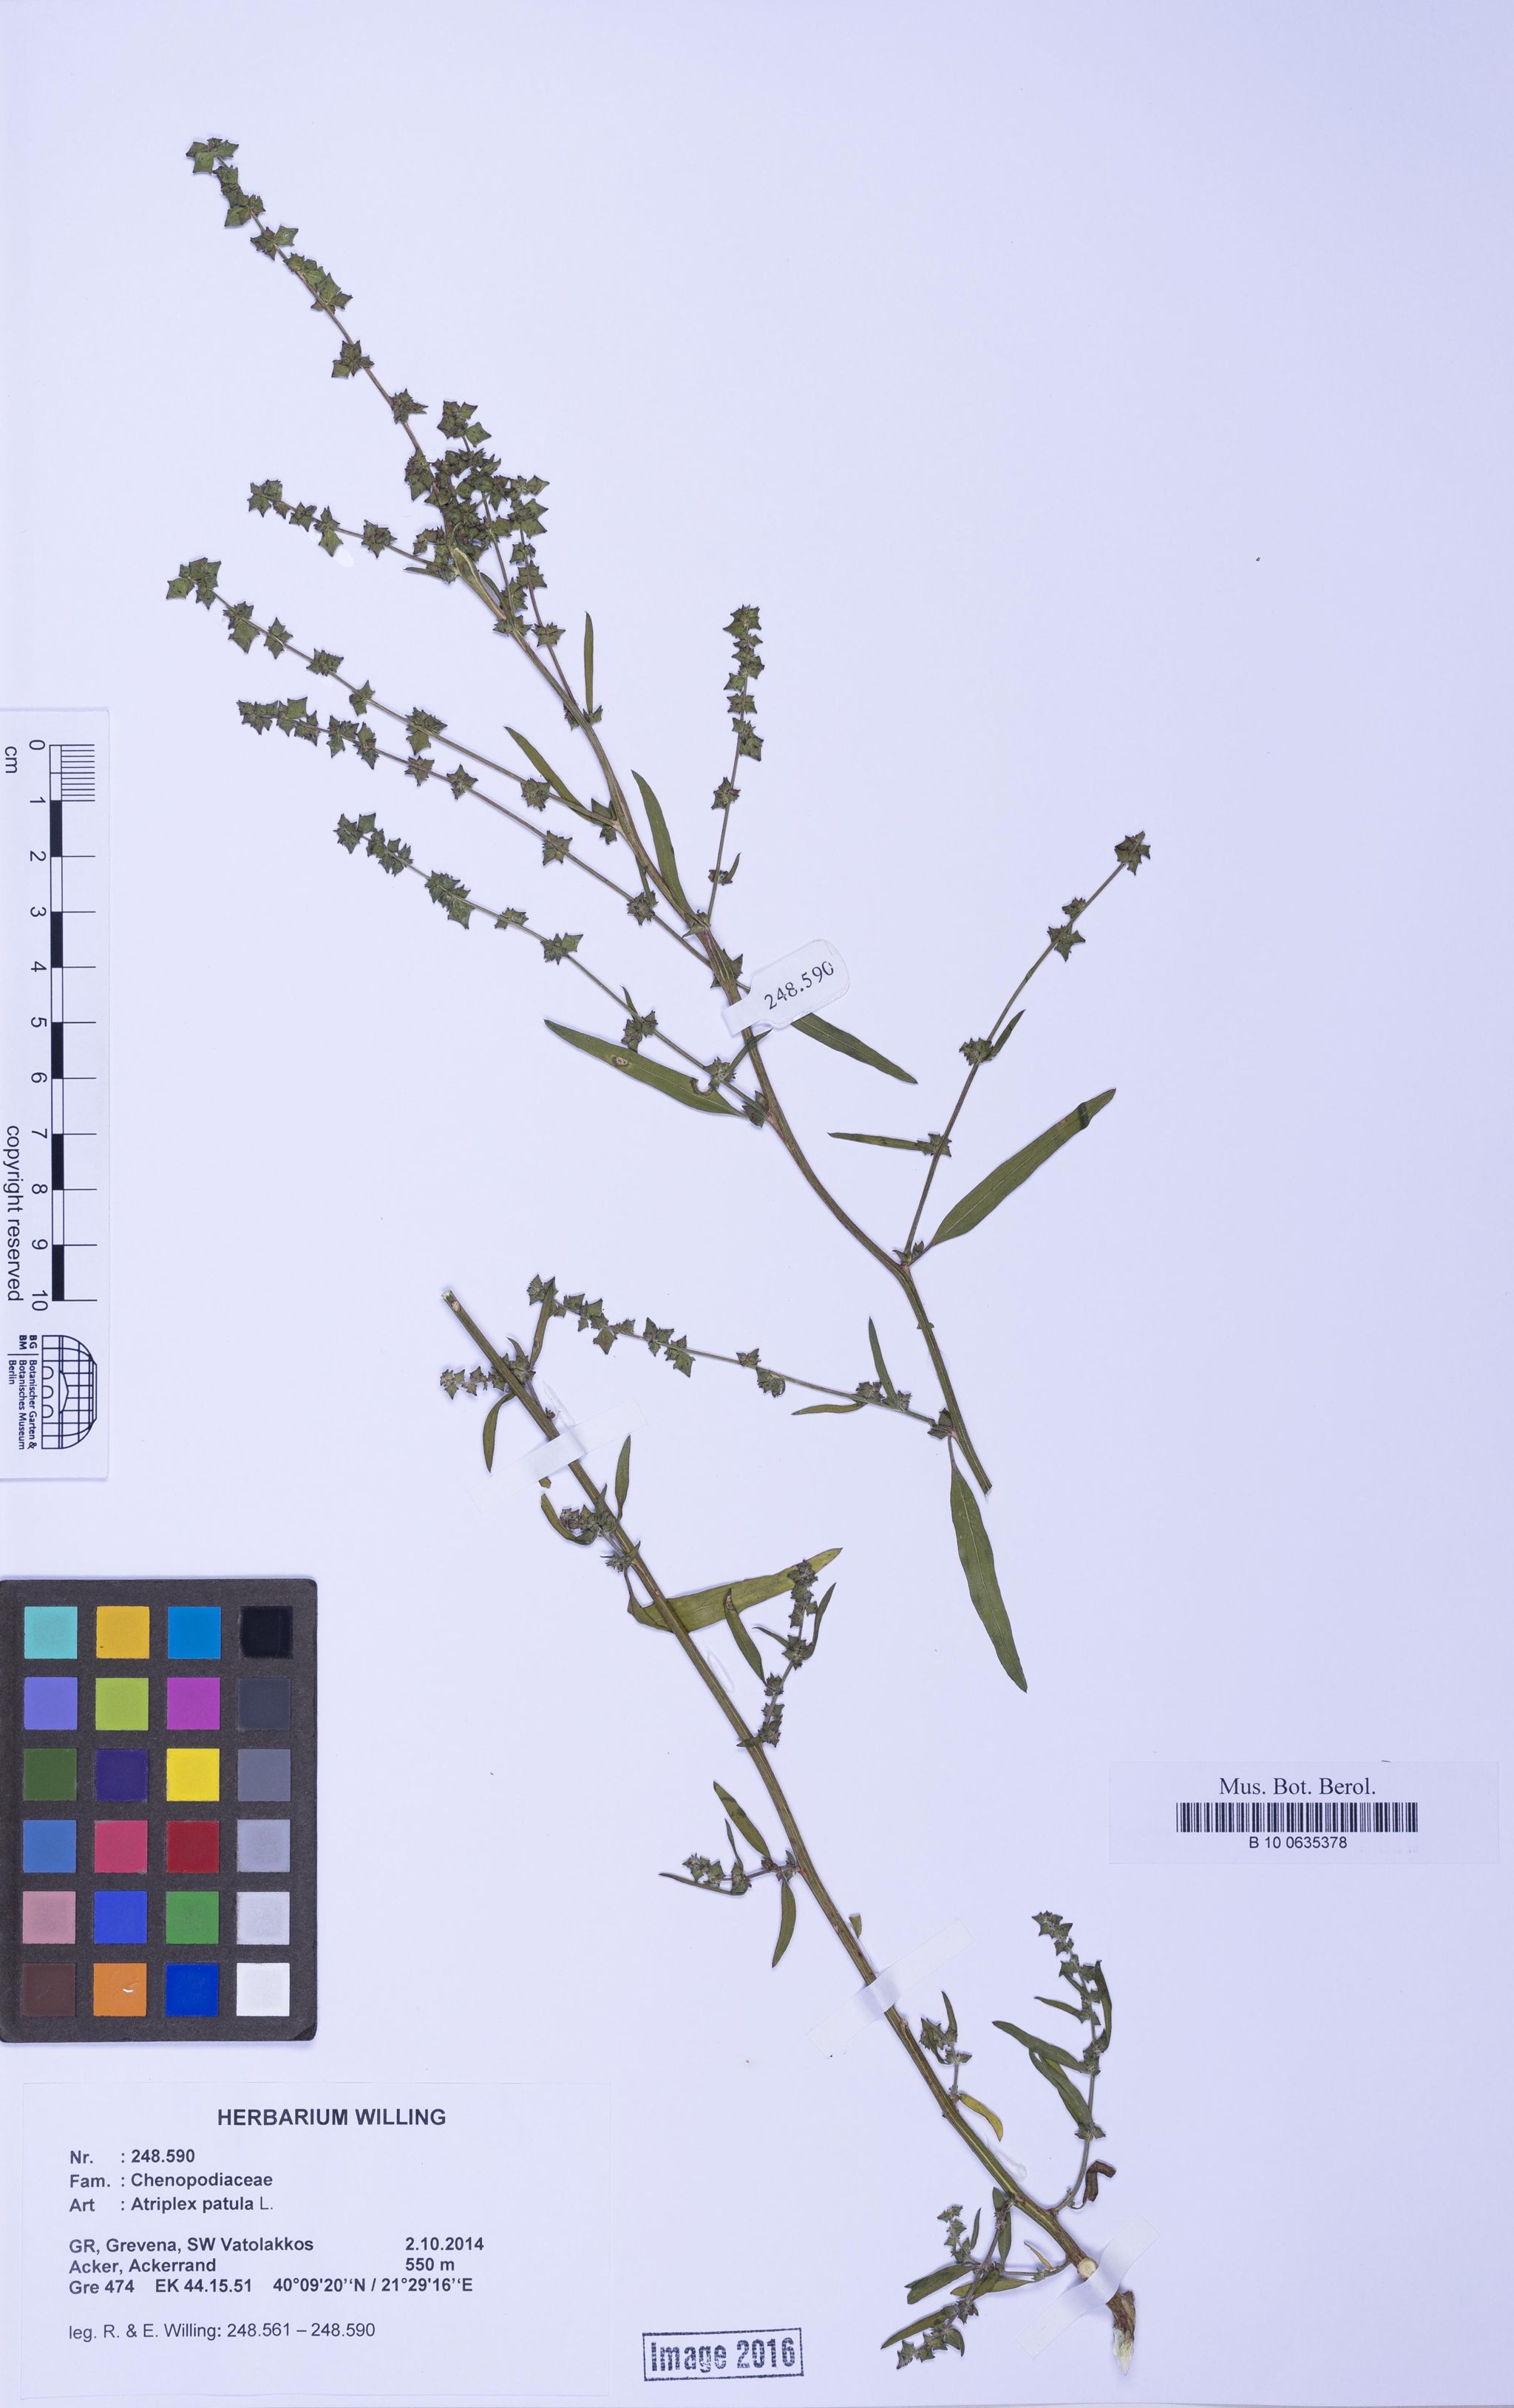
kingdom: Plantae
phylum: Tracheophyta
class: Magnoliopsida
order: Caryophyllales
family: Amaranthaceae
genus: Atriplex
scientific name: Atriplex patula
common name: Common orache
